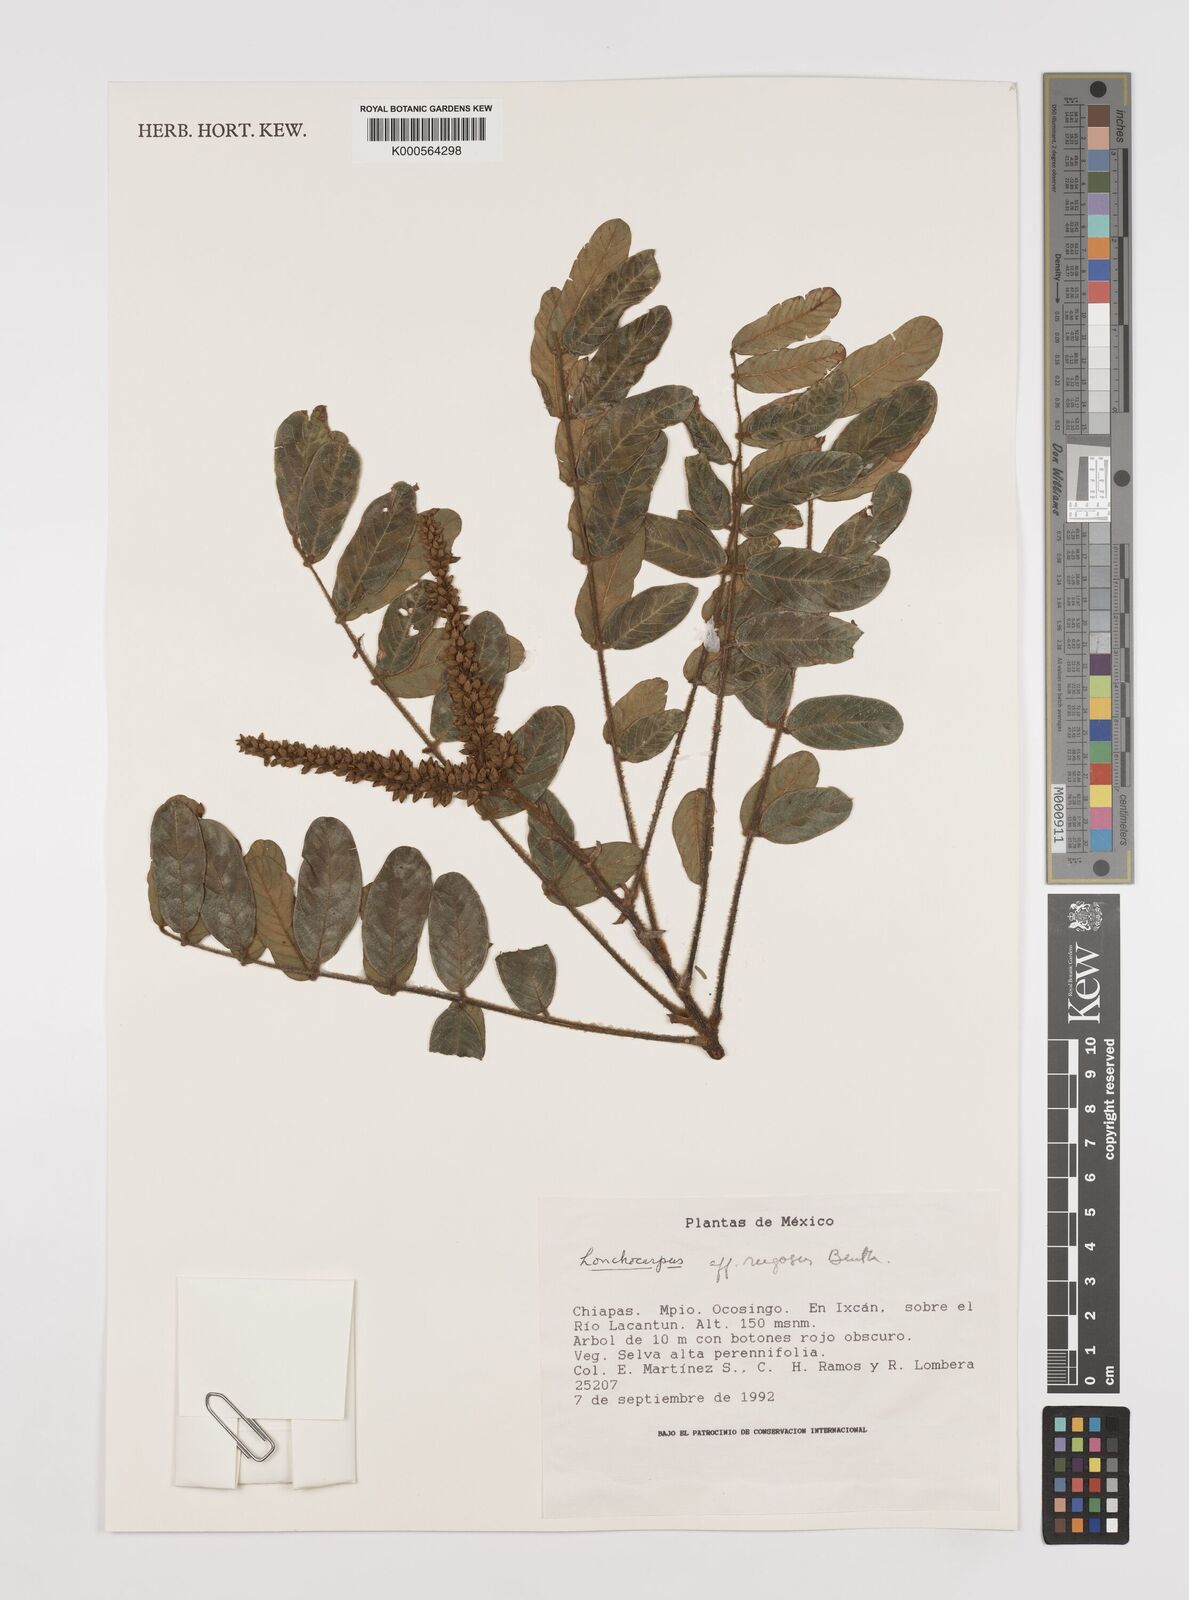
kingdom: Plantae
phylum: Tracheophyta
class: Magnoliopsida
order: Fabales
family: Fabaceae
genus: Lonchocarpus
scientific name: Lonchocarpus rugosus
